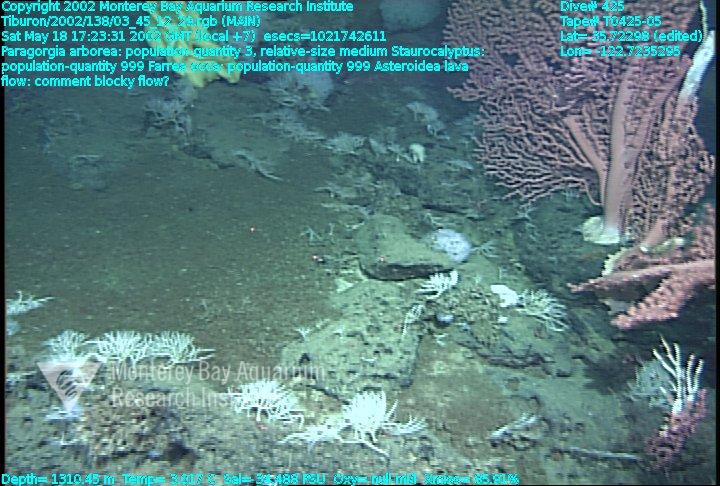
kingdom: Animalia
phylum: Porifera
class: Hexactinellida
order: Lyssacinosida
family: Rossellidae
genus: Staurocalyptus
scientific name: Staurocalyptus
